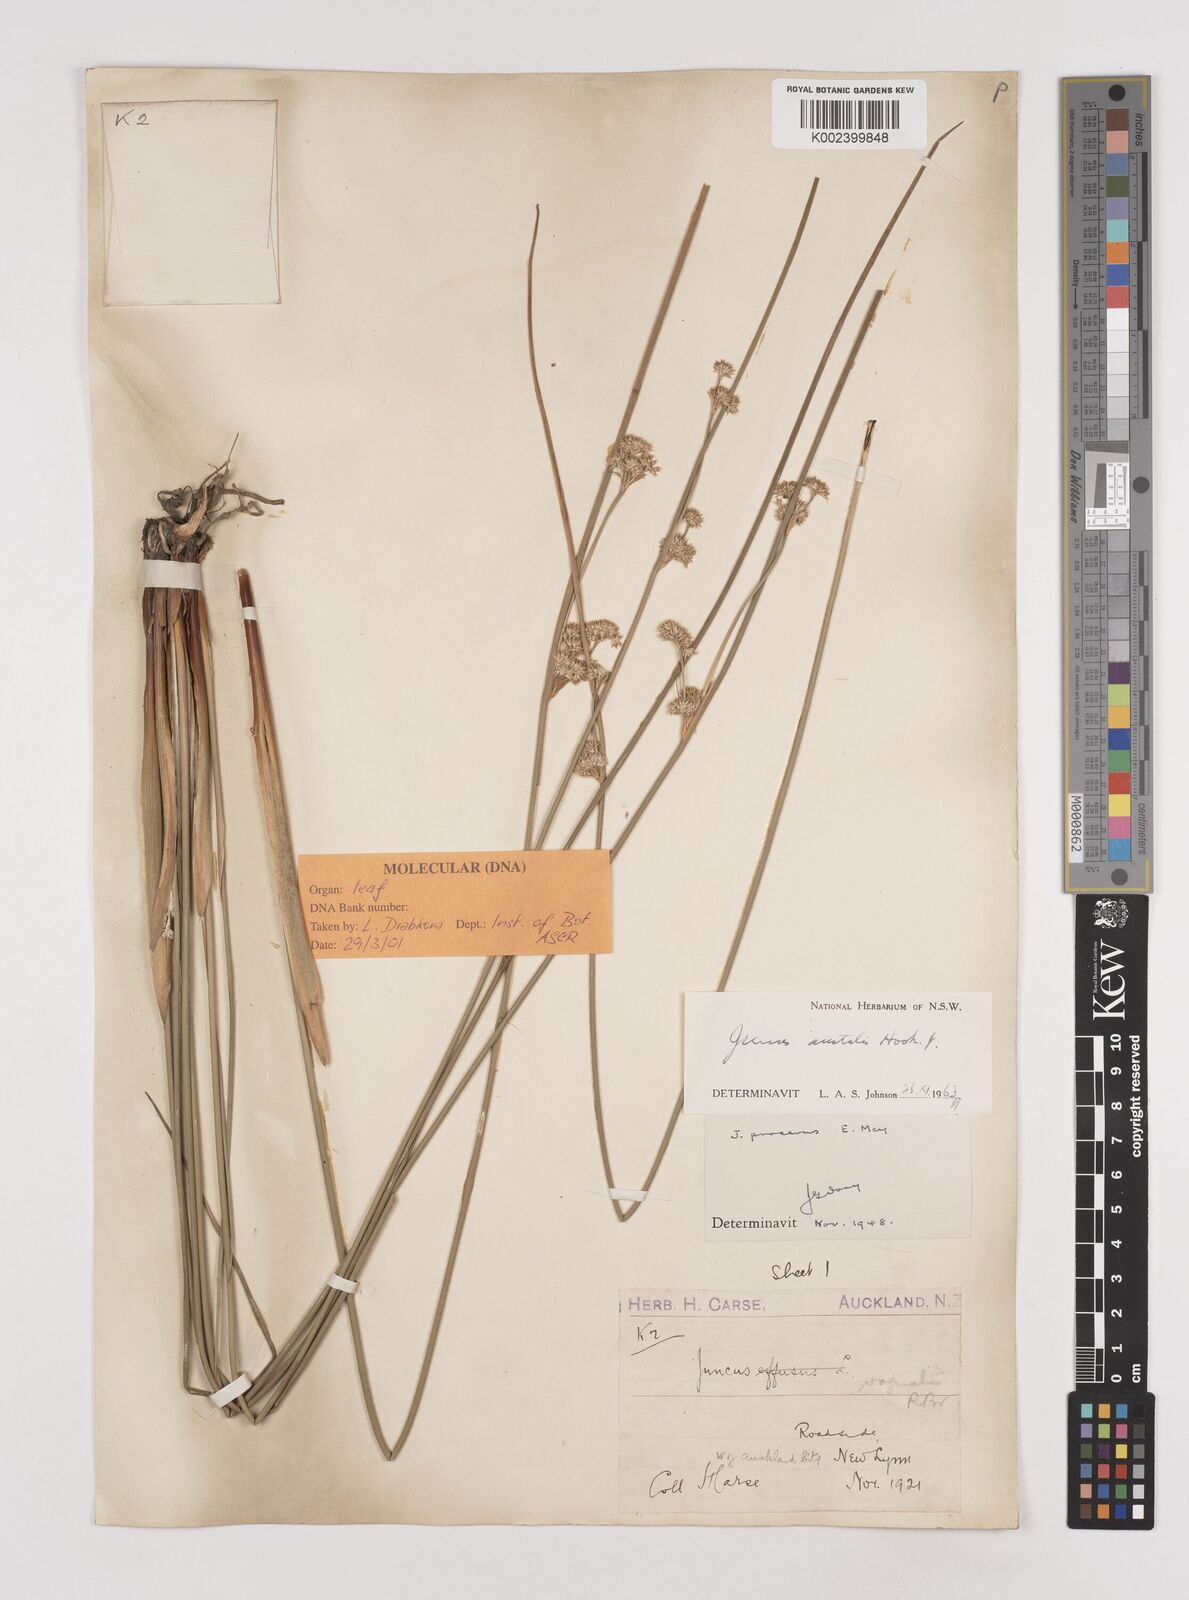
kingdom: Plantae
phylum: Tracheophyta
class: Liliopsida
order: Poales
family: Juncaceae
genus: Juncus
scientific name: Juncus australis
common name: Austral rush
